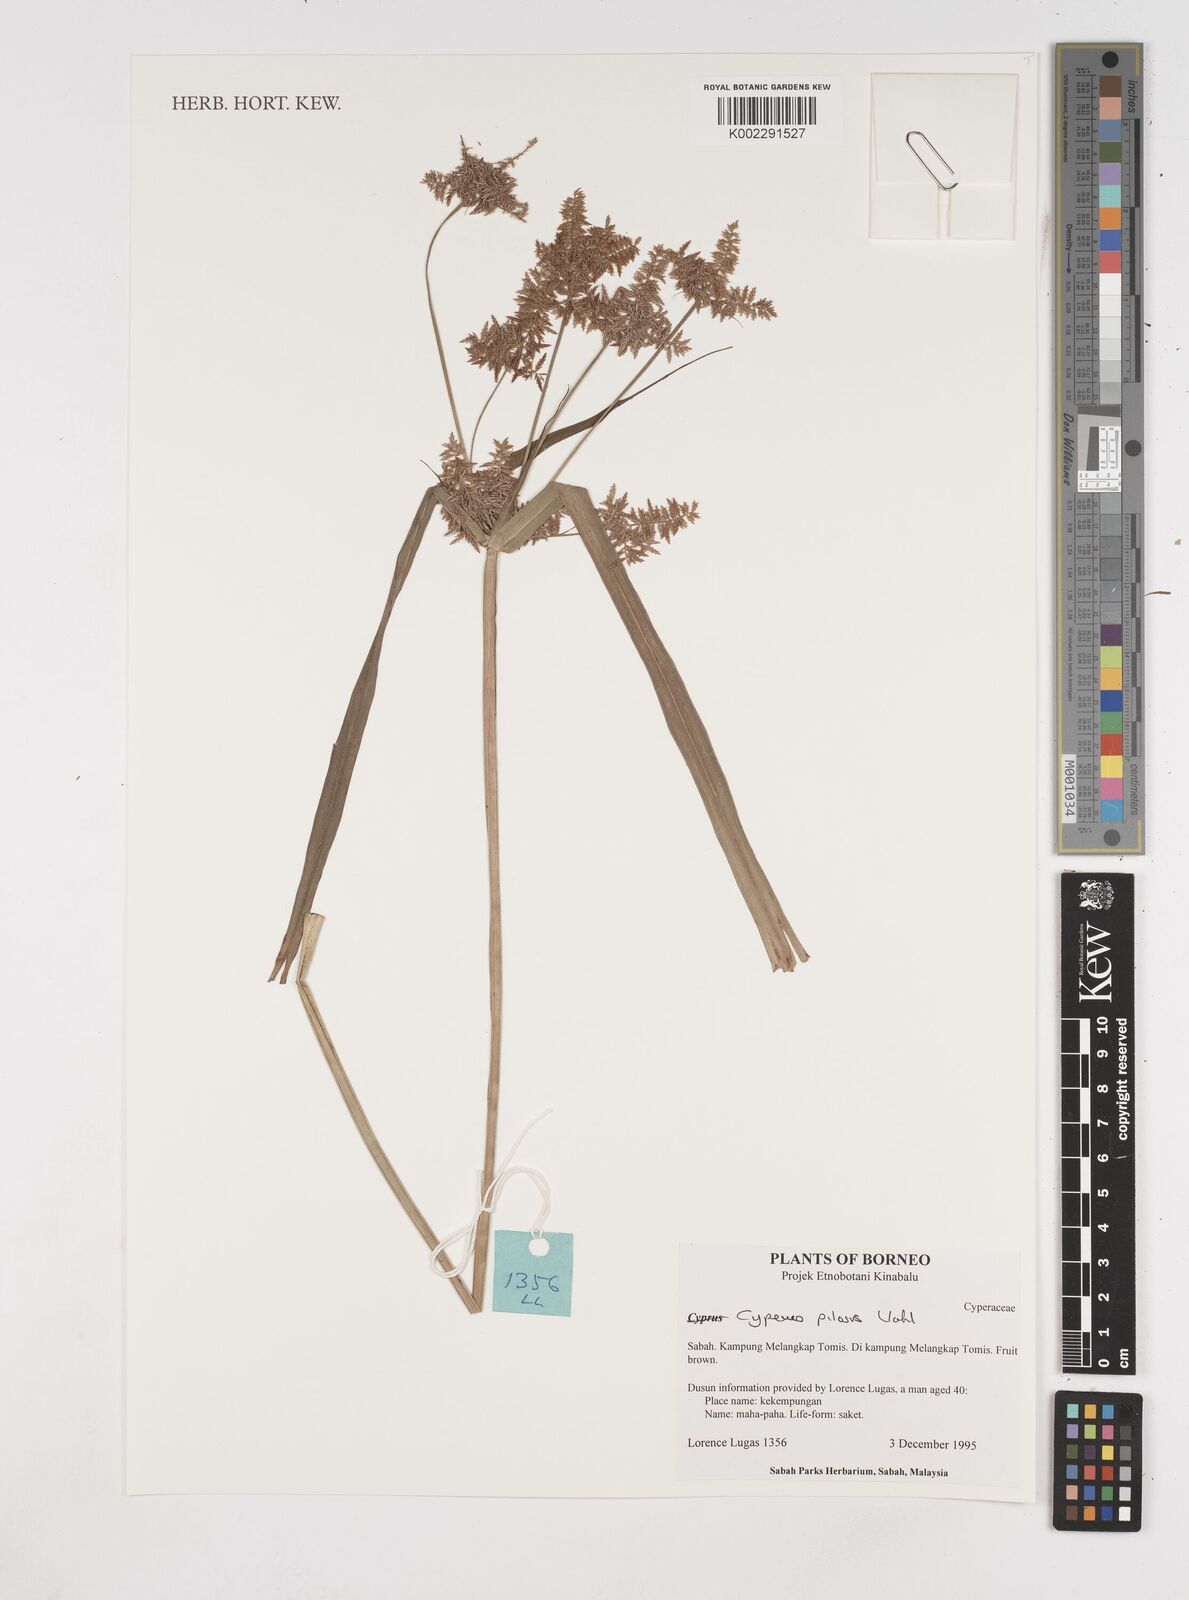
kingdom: Plantae
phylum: Tracheophyta
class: Liliopsida
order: Poales
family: Cyperaceae
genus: Cyperus
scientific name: Cyperus pilosus
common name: Fuzzy flatsedge
